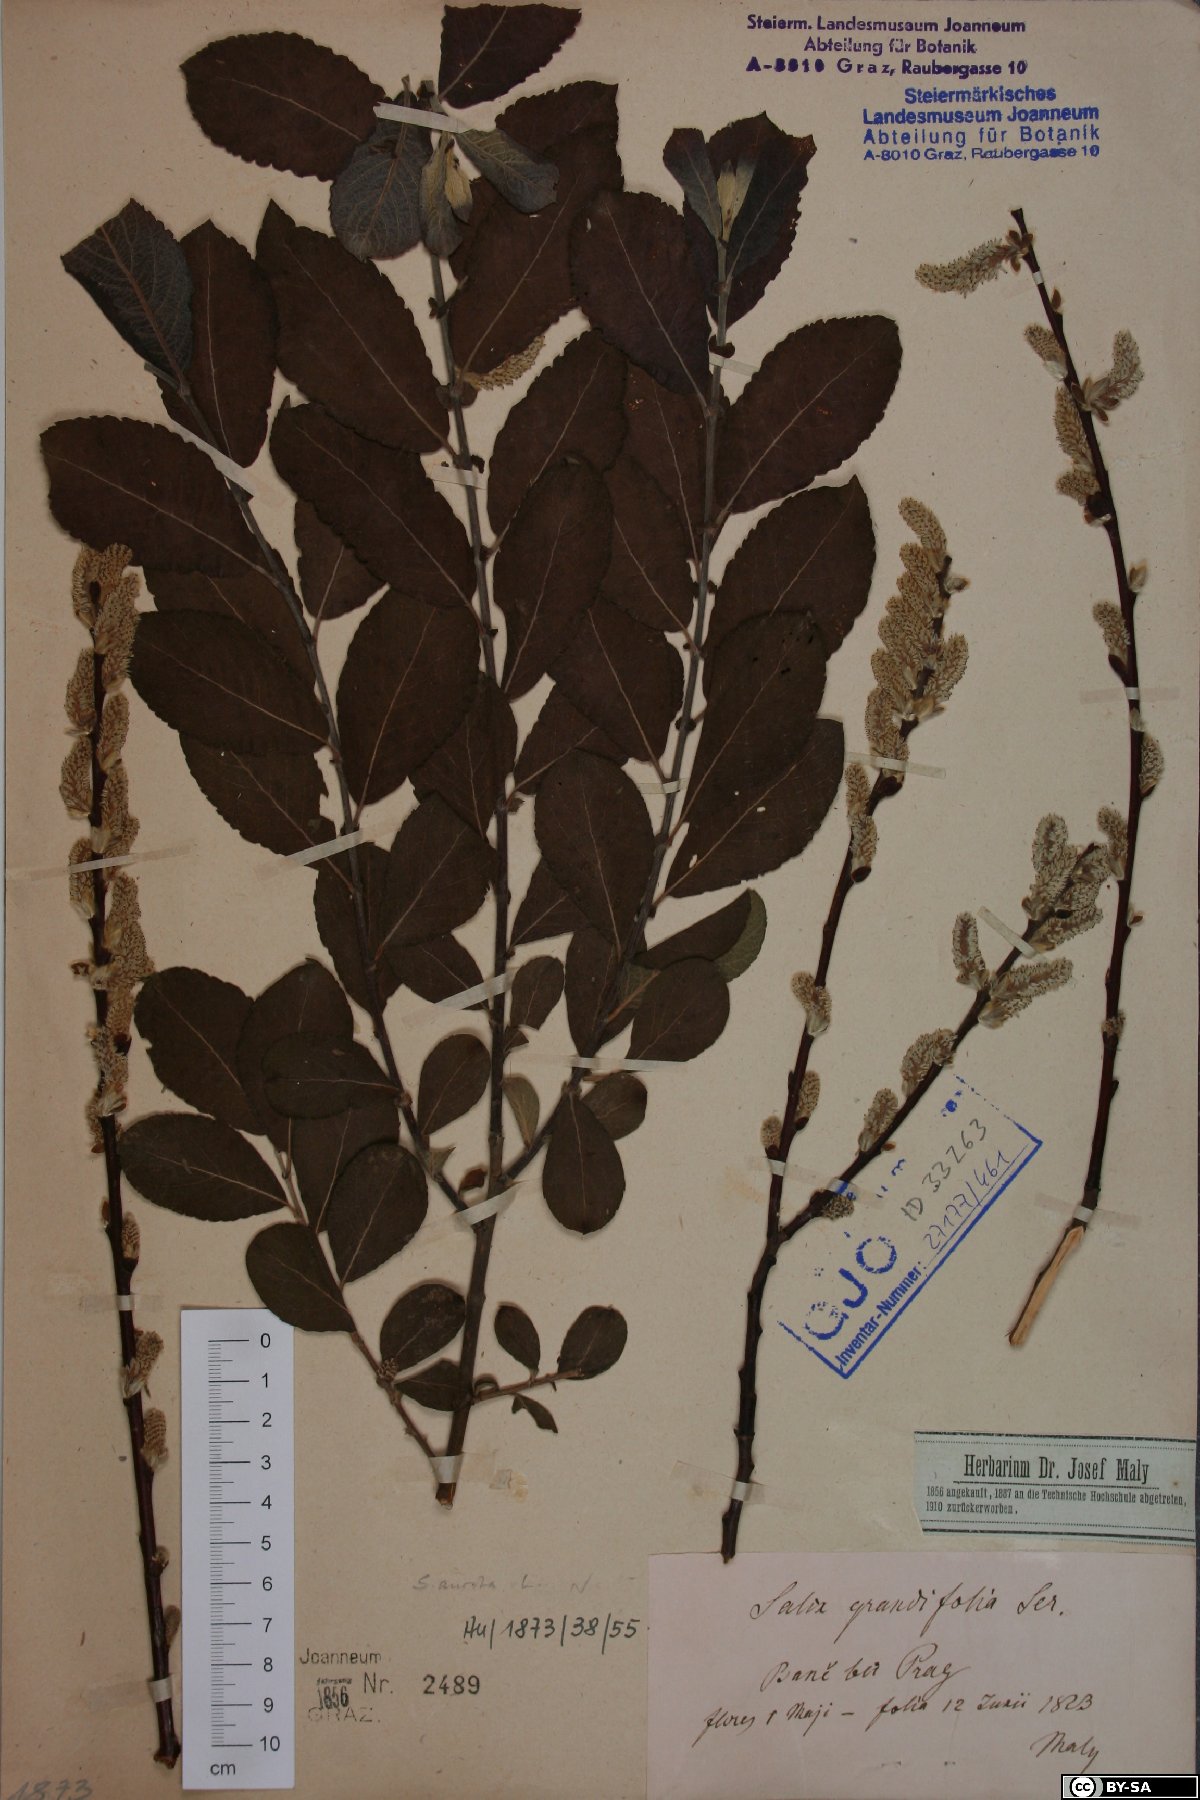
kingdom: Plantae
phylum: Tracheophyta
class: Magnoliopsida
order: Malpighiales
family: Salicaceae
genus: Salix
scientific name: Salix aurita
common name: Eared willow
